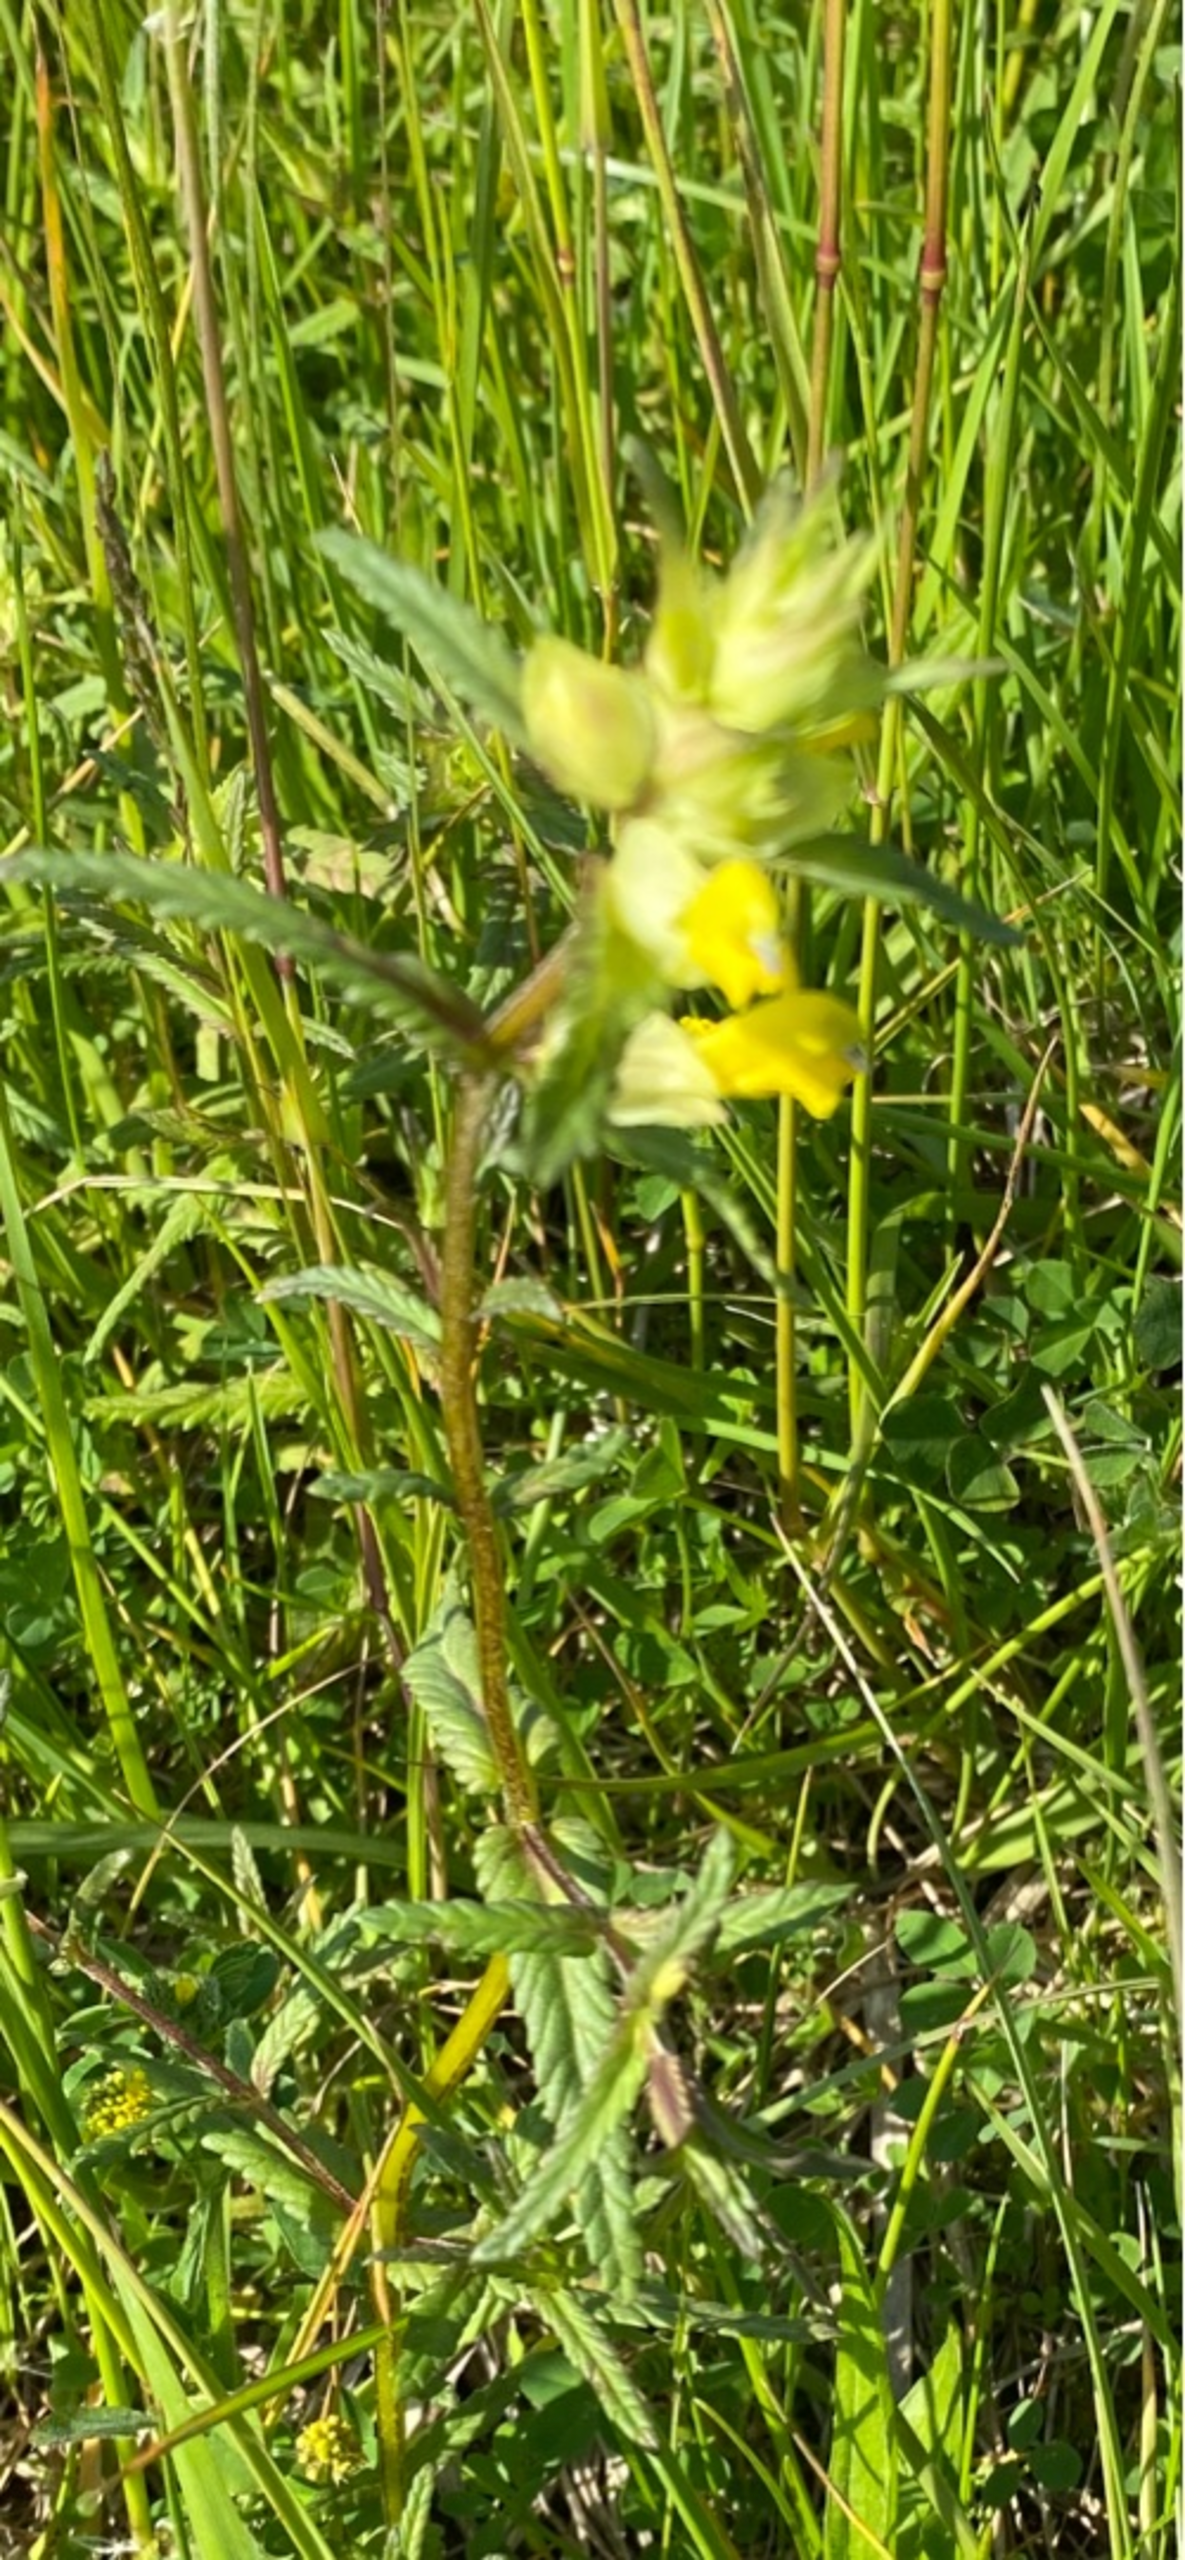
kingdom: Plantae
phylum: Tracheophyta
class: Magnoliopsida
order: Lamiales
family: Orobanchaceae
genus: Rhinanthus
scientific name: Rhinanthus
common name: Stor skjaller
